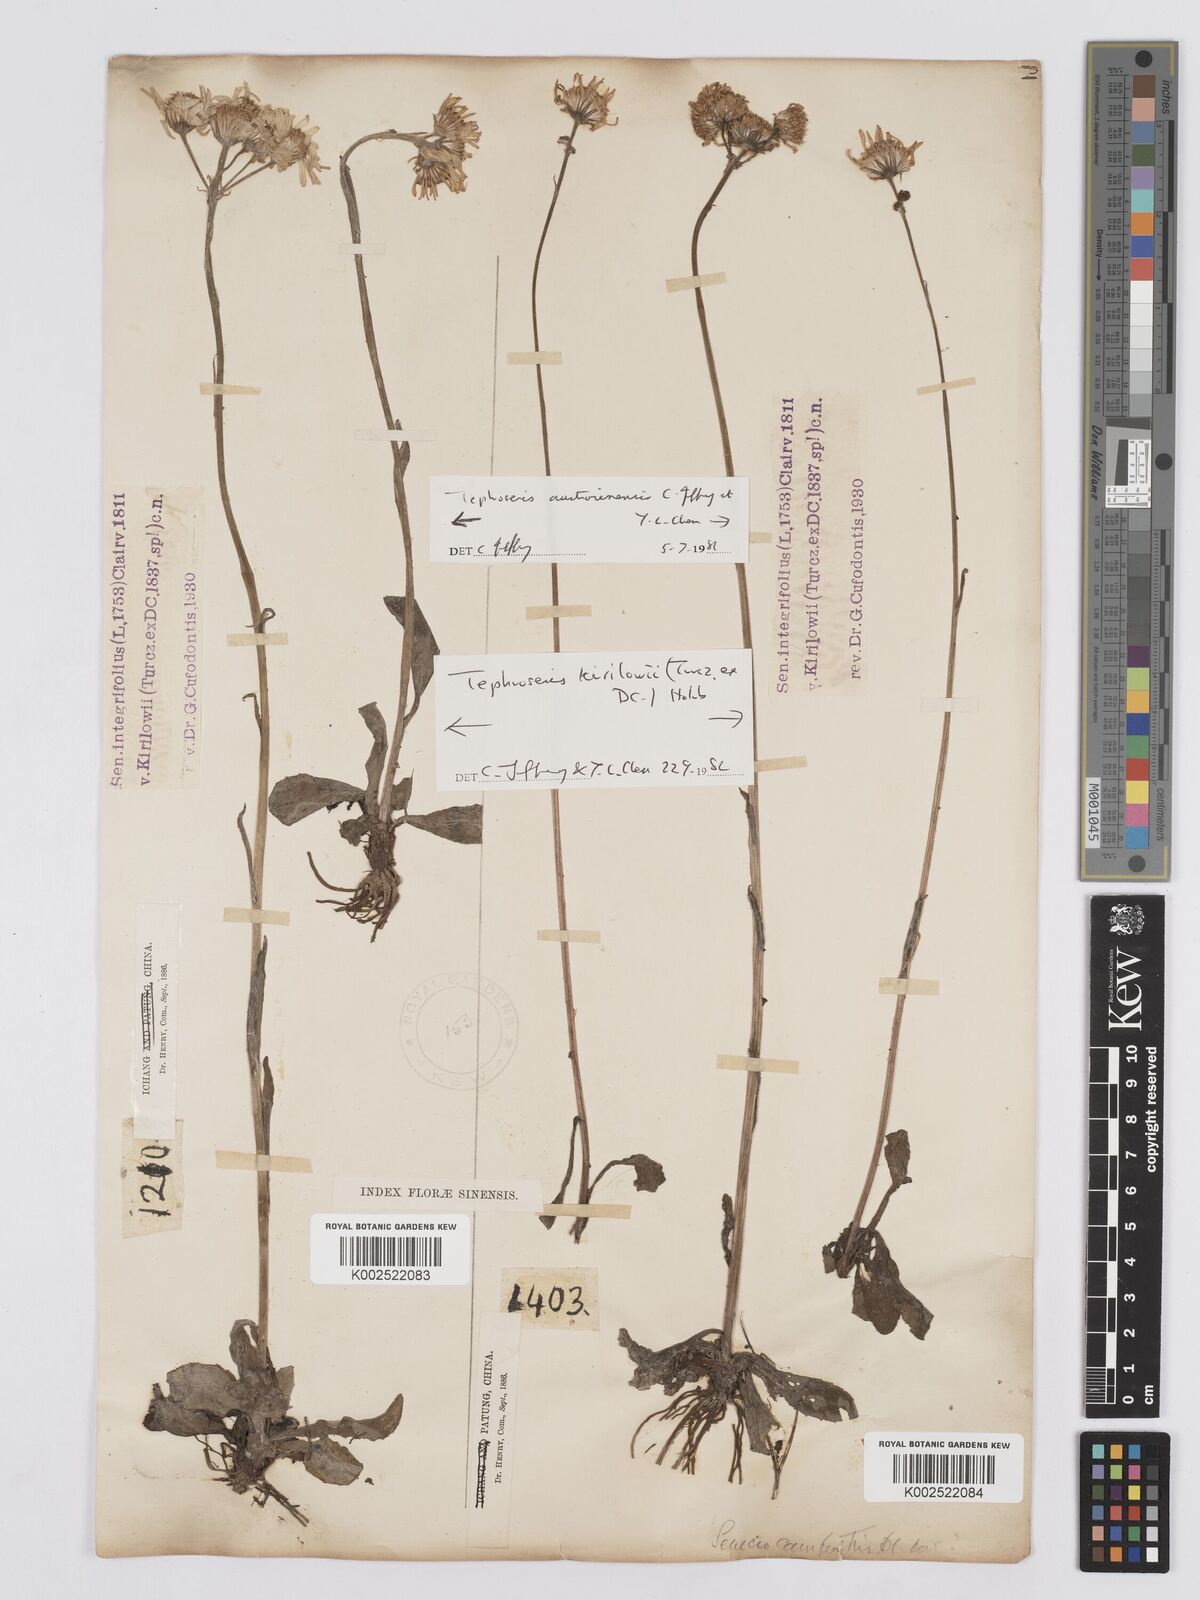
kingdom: Plantae
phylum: Tracheophyta
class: Magnoliopsida
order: Asterales
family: Asteraceae
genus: Tephroseris
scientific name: Tephroseris kirilowii
